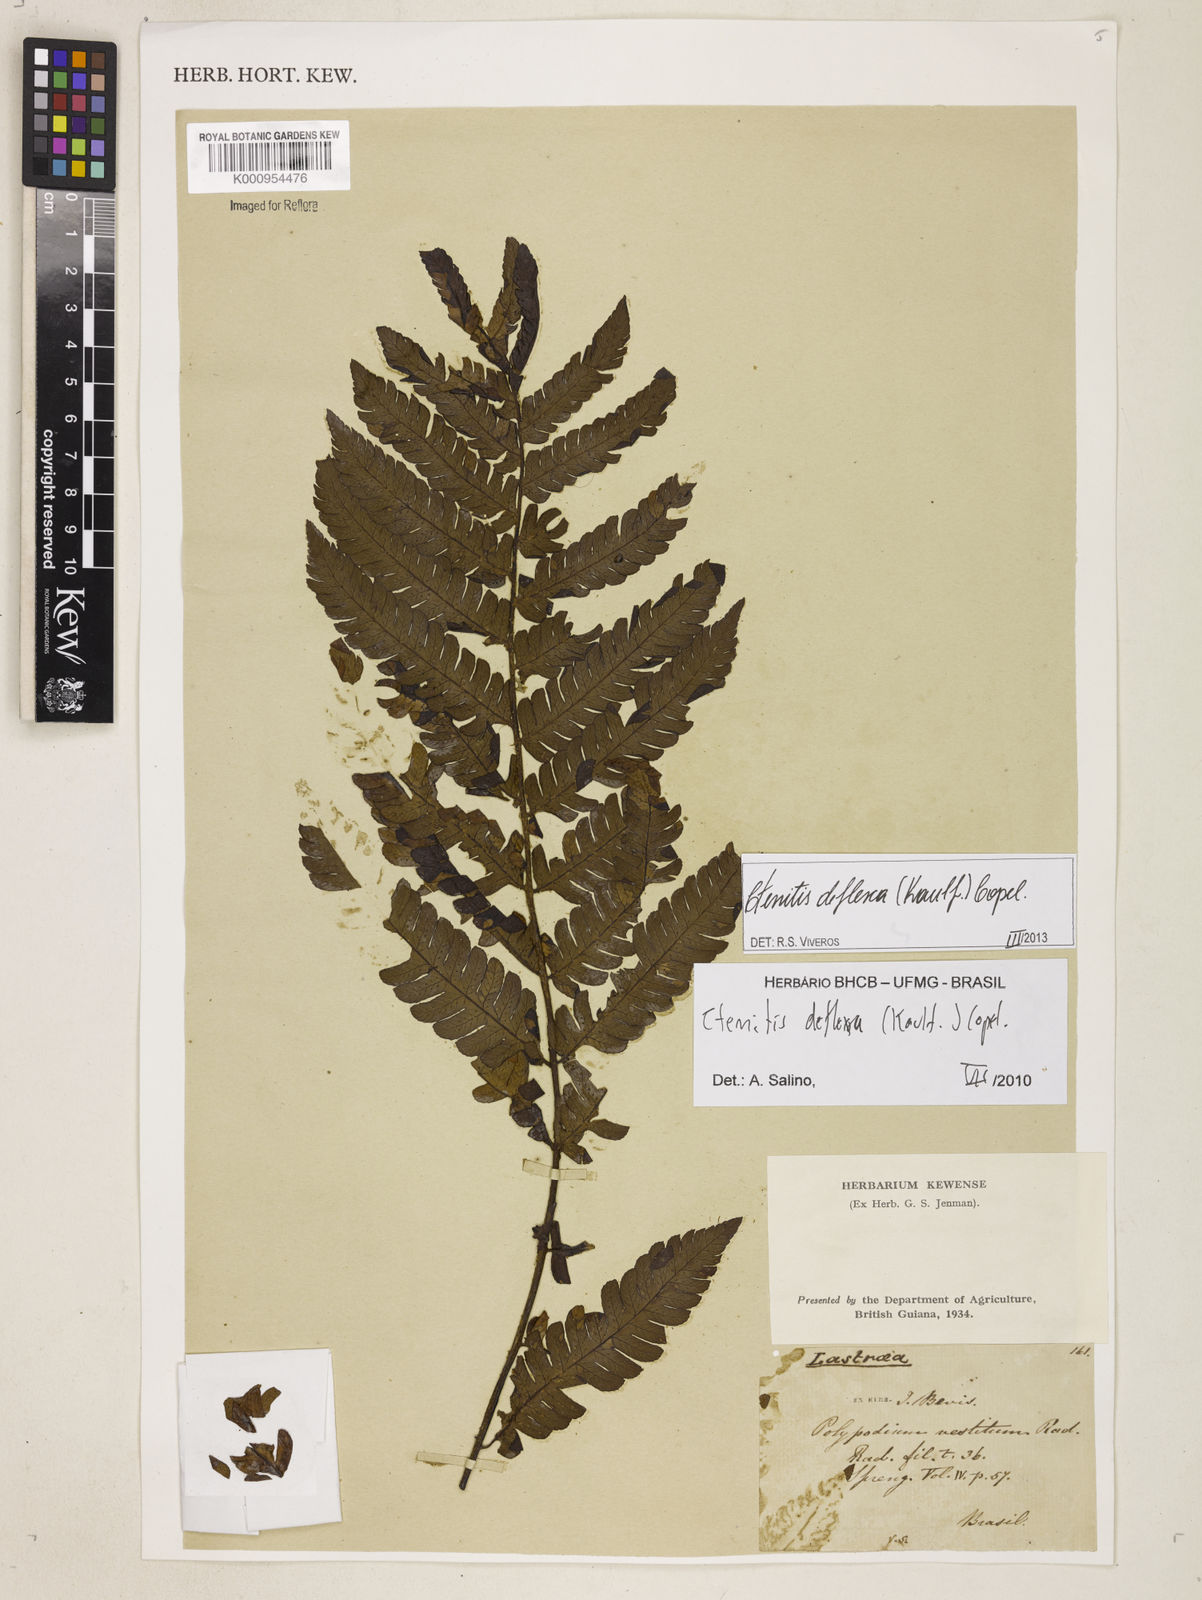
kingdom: Plantae
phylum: Tracheophyta
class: Polypodiopsida
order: Polypodiales
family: Dryopteridaceae
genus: Ctenitis
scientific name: Ctenitis deflexa
